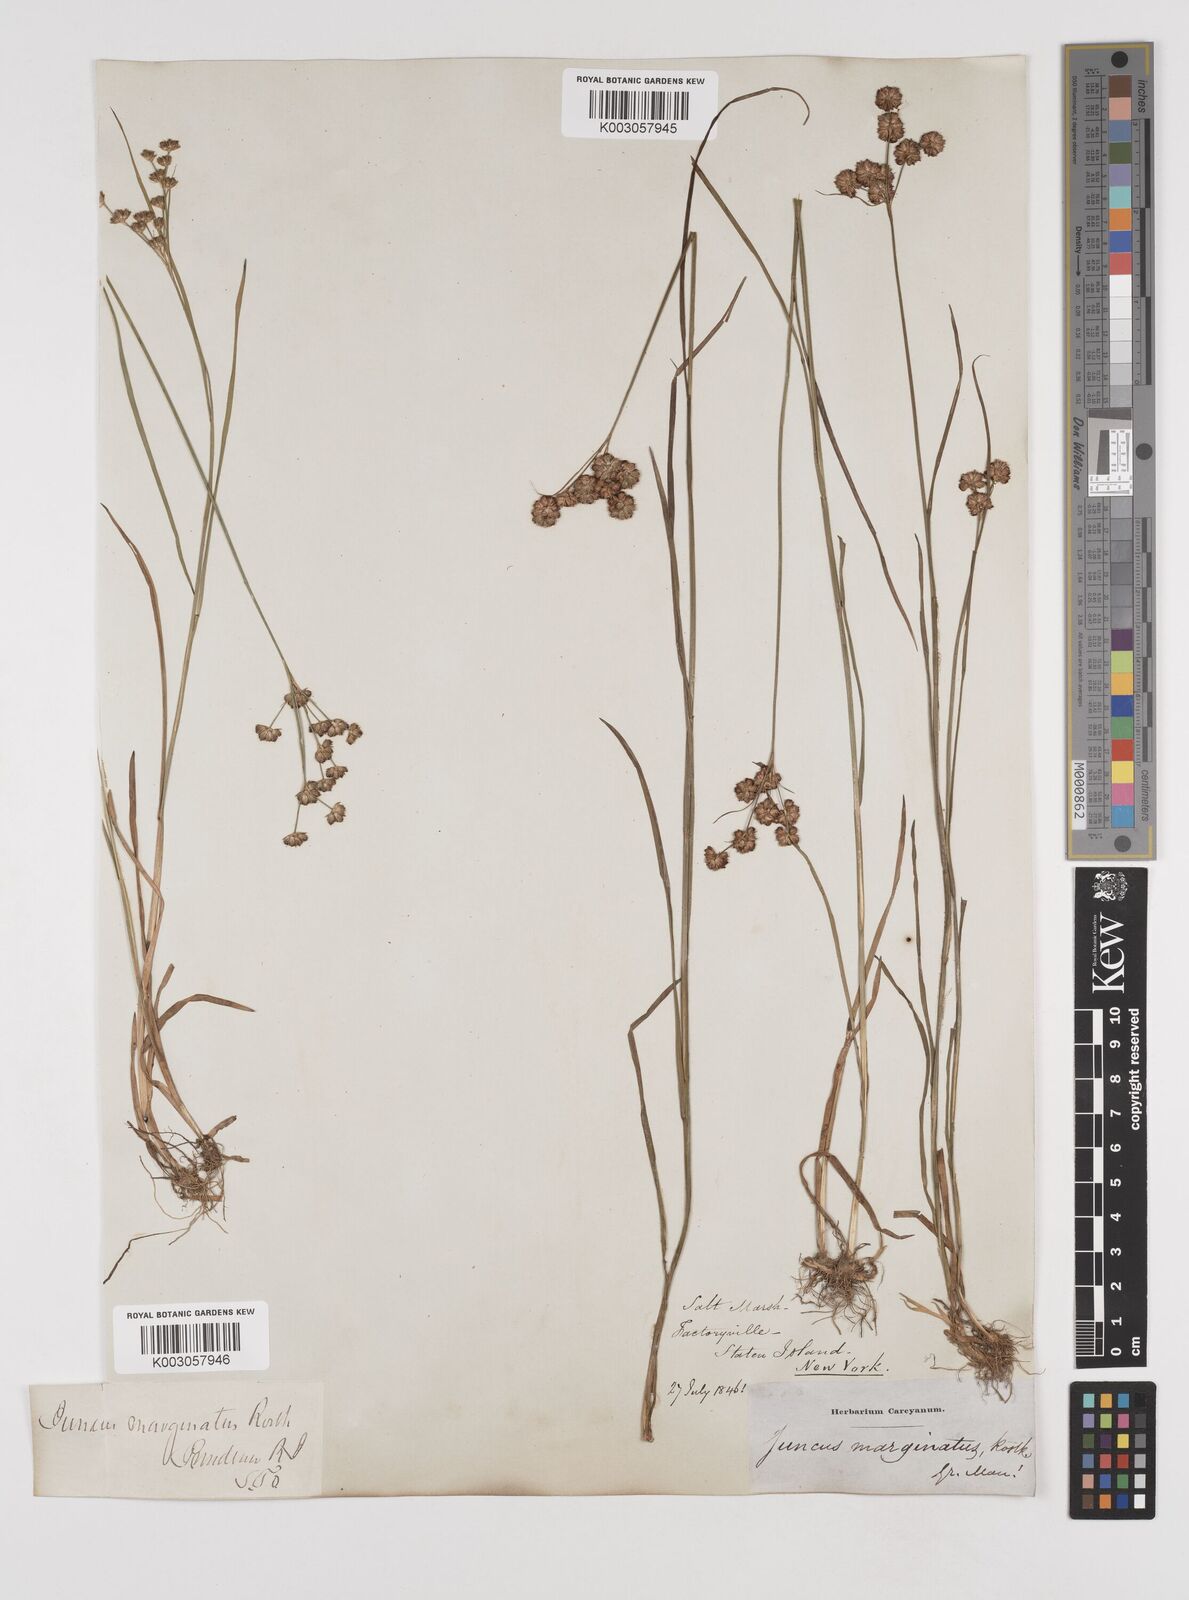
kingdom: Plantae
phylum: Tracheophyta
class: Liliopsida
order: Poales
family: Juncaceae
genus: Juncus
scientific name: Juncus marginatus
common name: Grass-leaf rush
